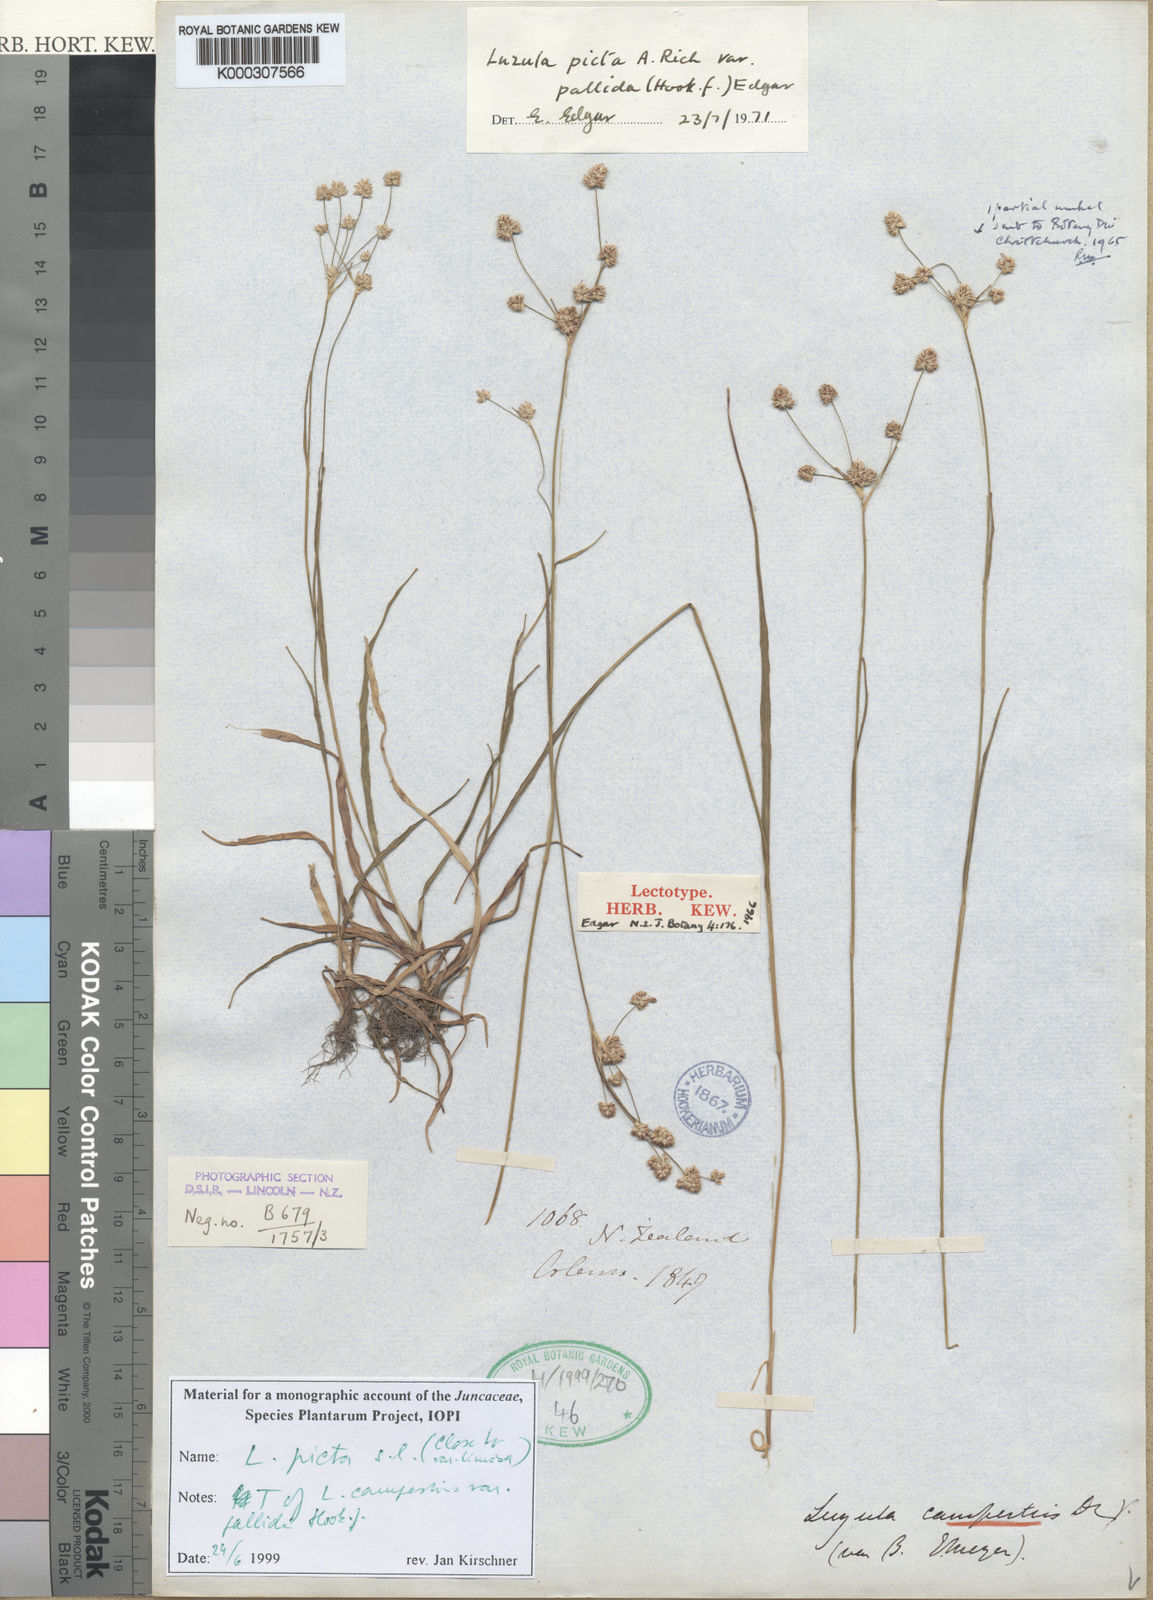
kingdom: Plantae
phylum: Tracheophyta
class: Liliopsida
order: Poales
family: Juncaceae
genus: Luzula
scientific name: Luzula campestris
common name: Field wood-rush
